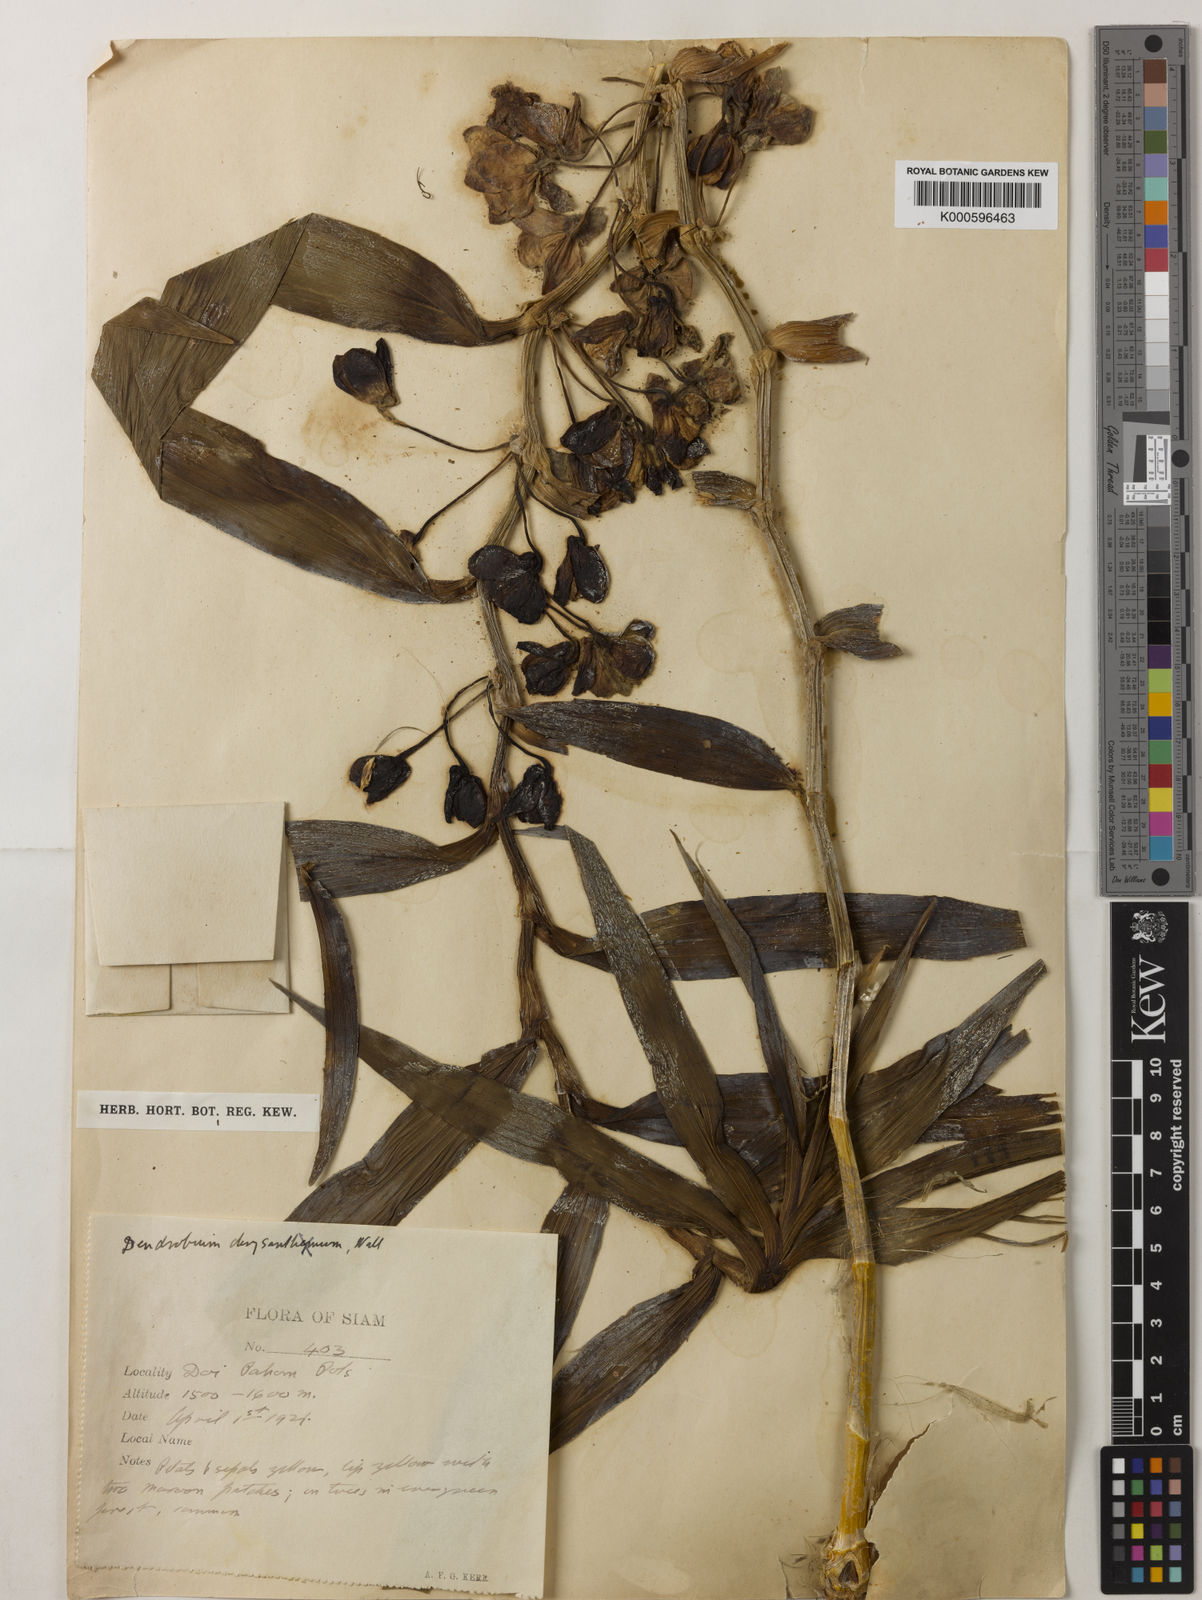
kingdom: Plantae
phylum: Tracheophyta
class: Liliopsida
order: Asparagales
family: Orchidaceae
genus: Dendrobium
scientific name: Dendrobium chrysanthum
